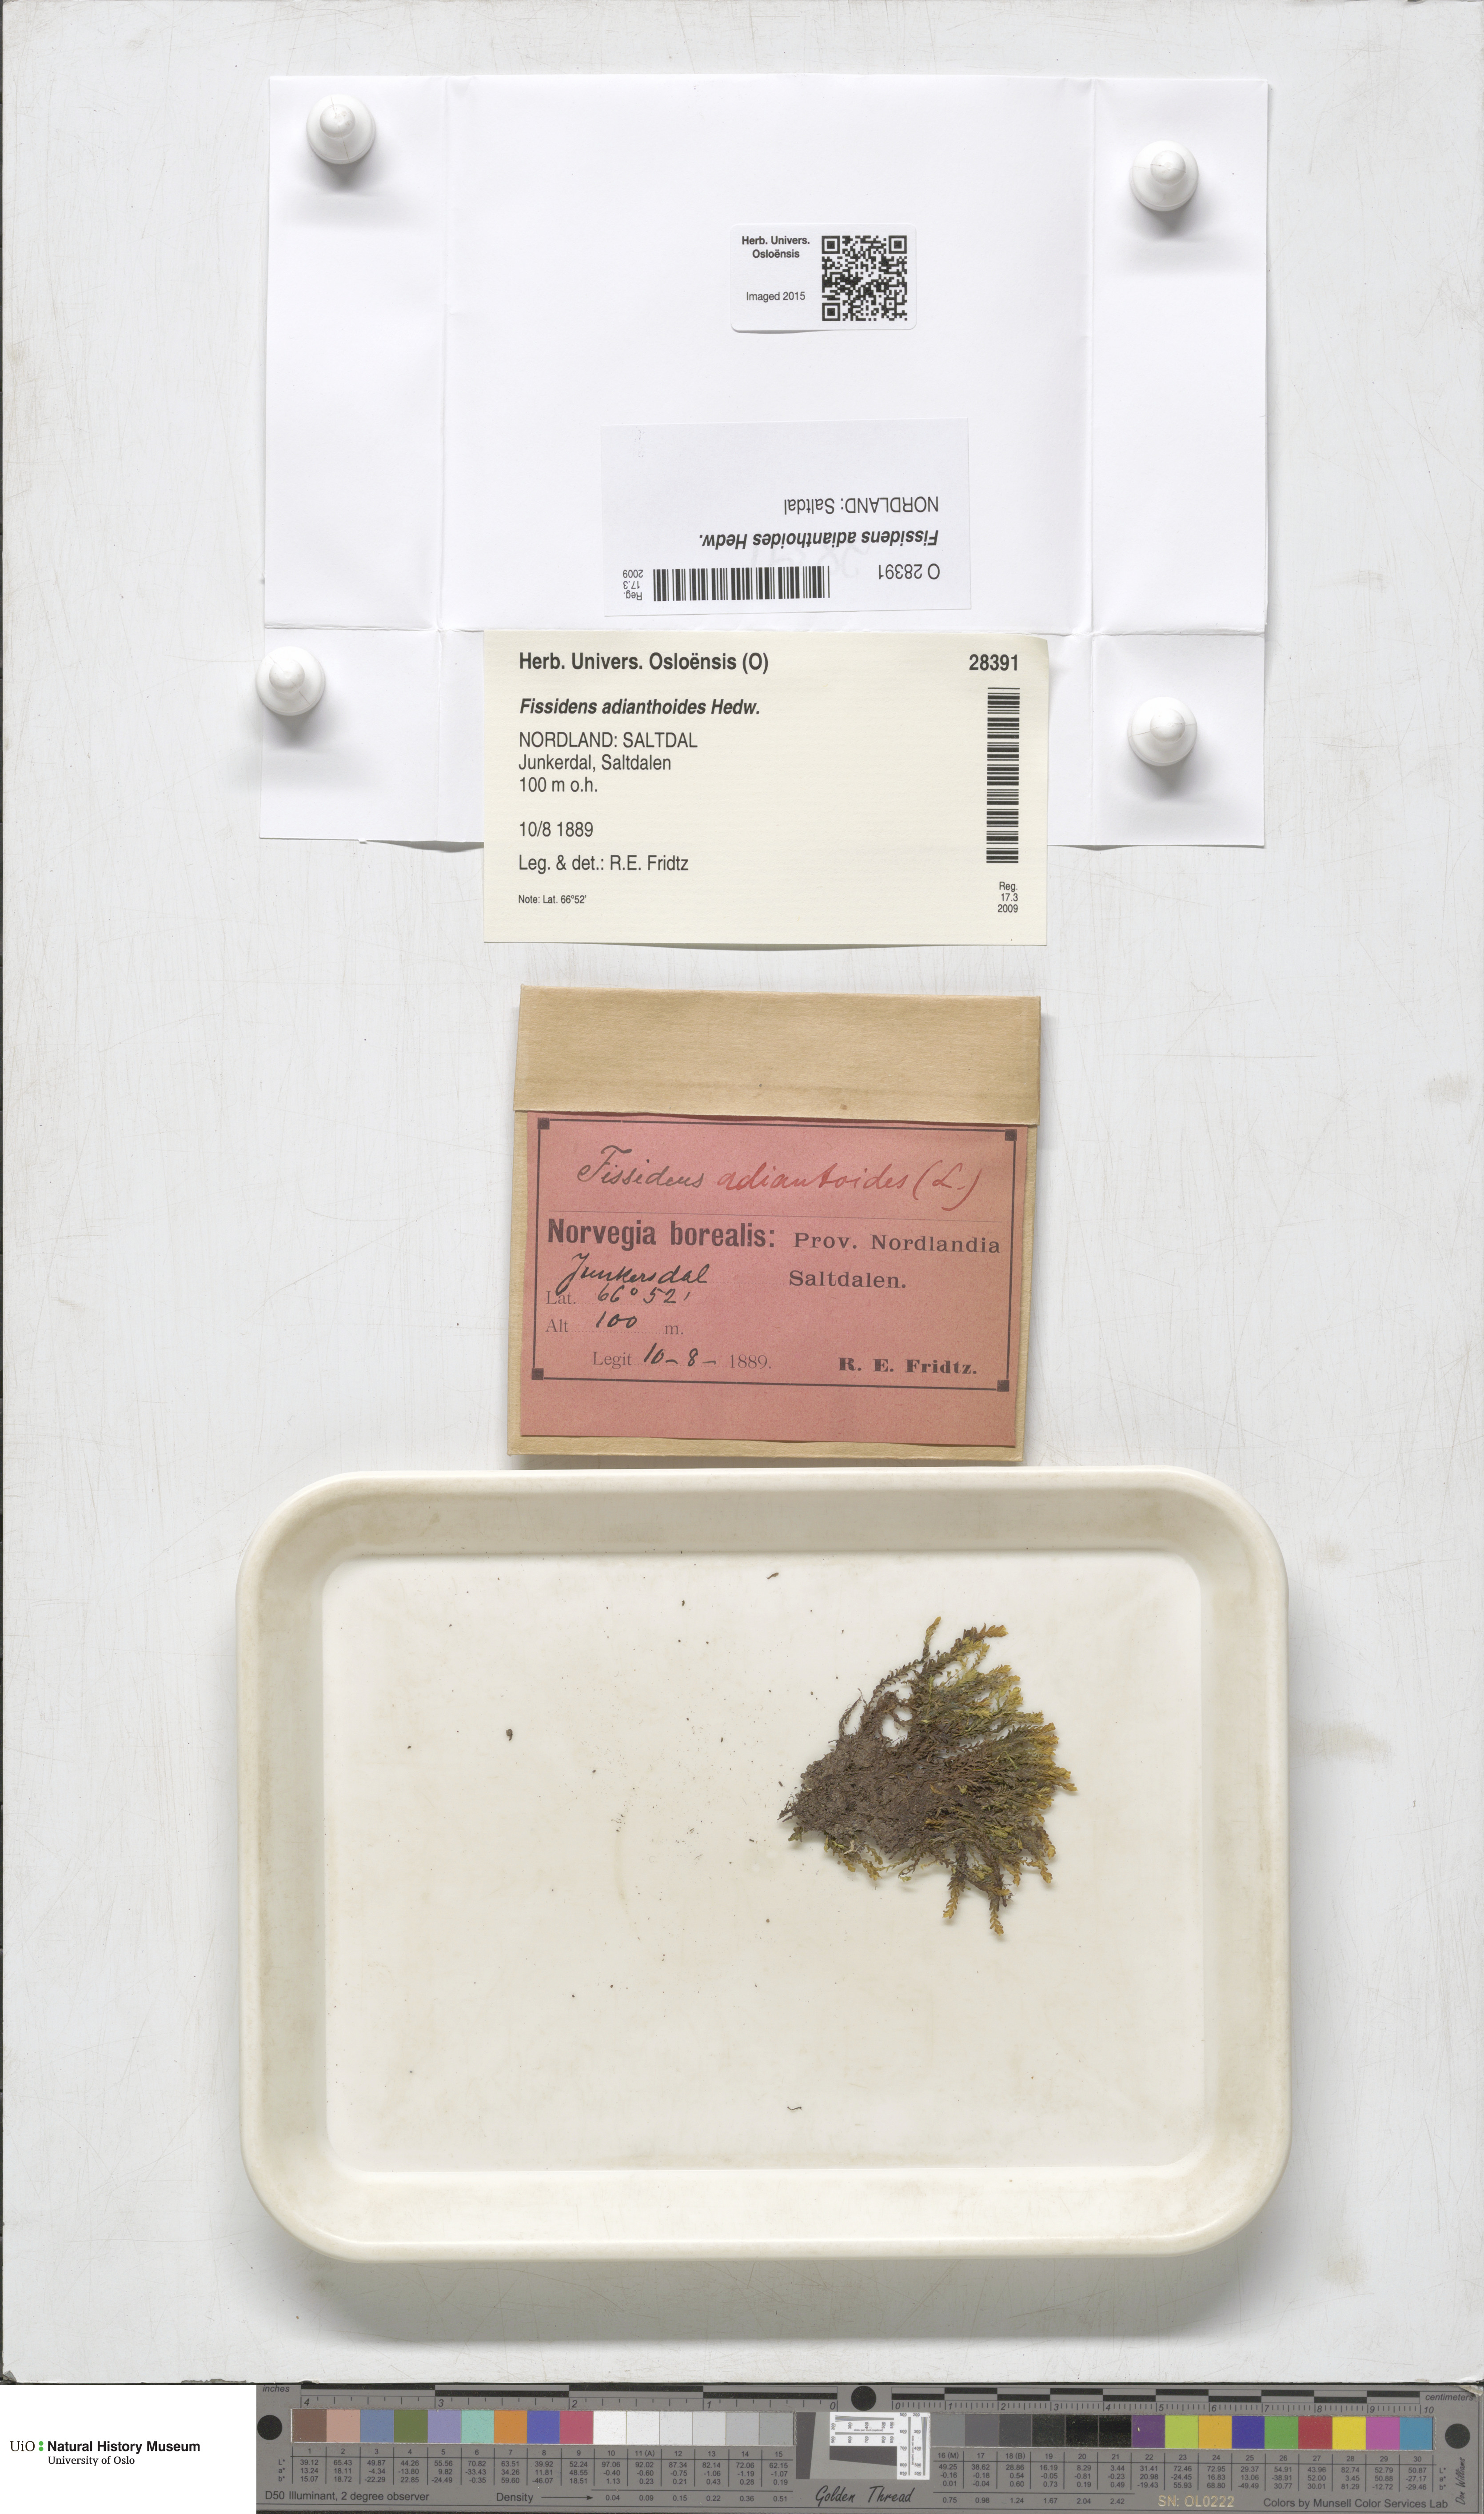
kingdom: Plantae
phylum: Bryophyta
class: Bryopsida
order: Dicranales
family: Fissidentaceae
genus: Fissidens
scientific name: Fissidens adianthoides
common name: Maidenhair pocket moss
